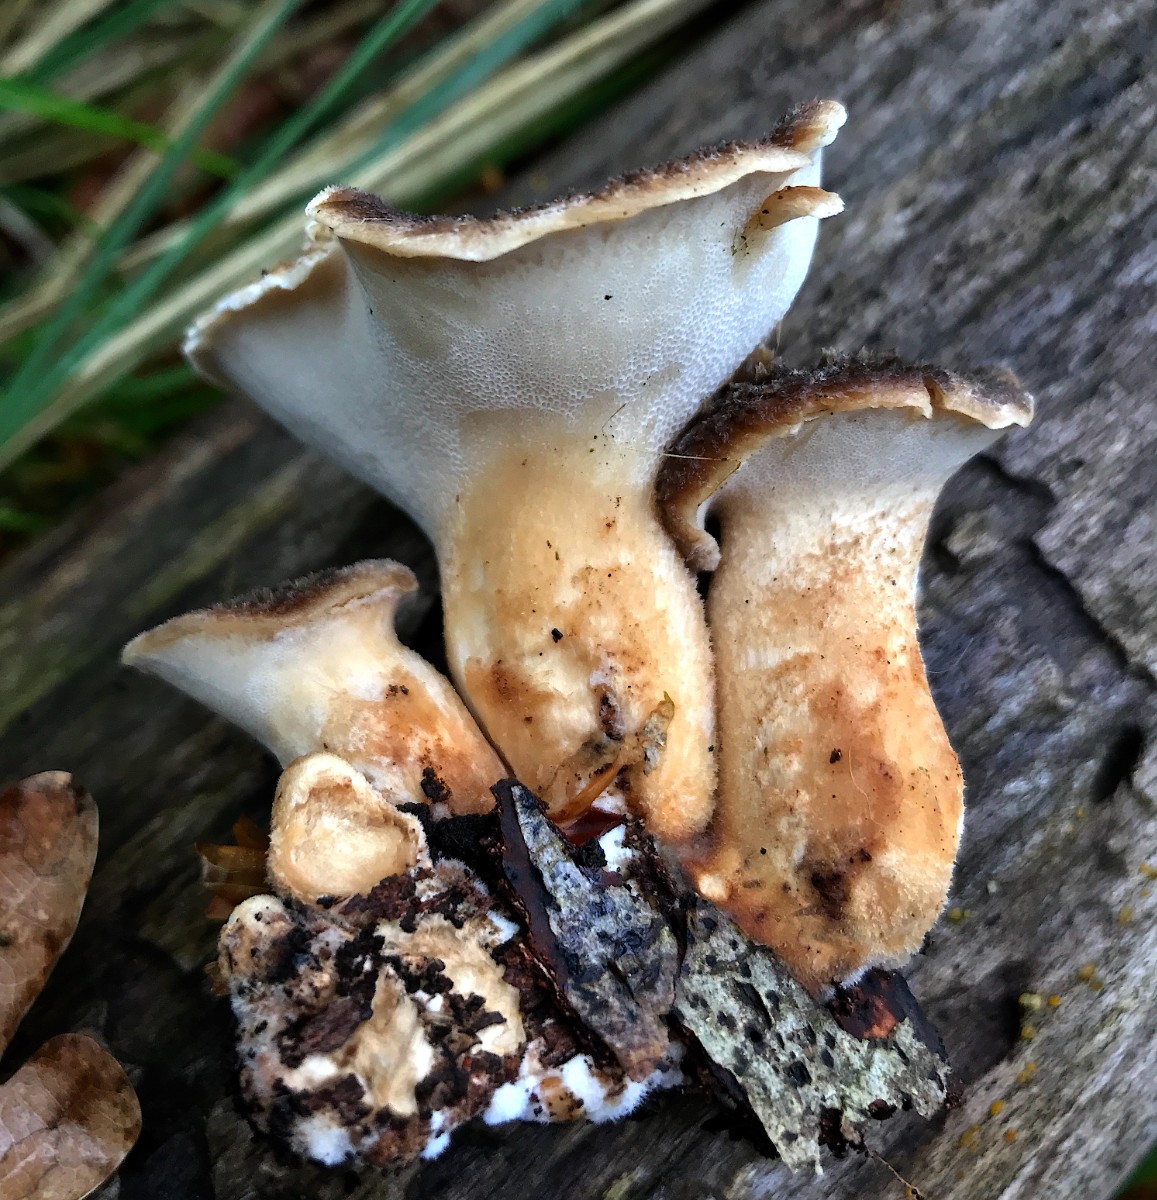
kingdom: Fungi
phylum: Basidiomycota
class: Agaricomycetes
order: Polyporales
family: Polyporaceae
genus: Cerioporus
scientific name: Cerioporus squamosus
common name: skællet stilkporesvamp
